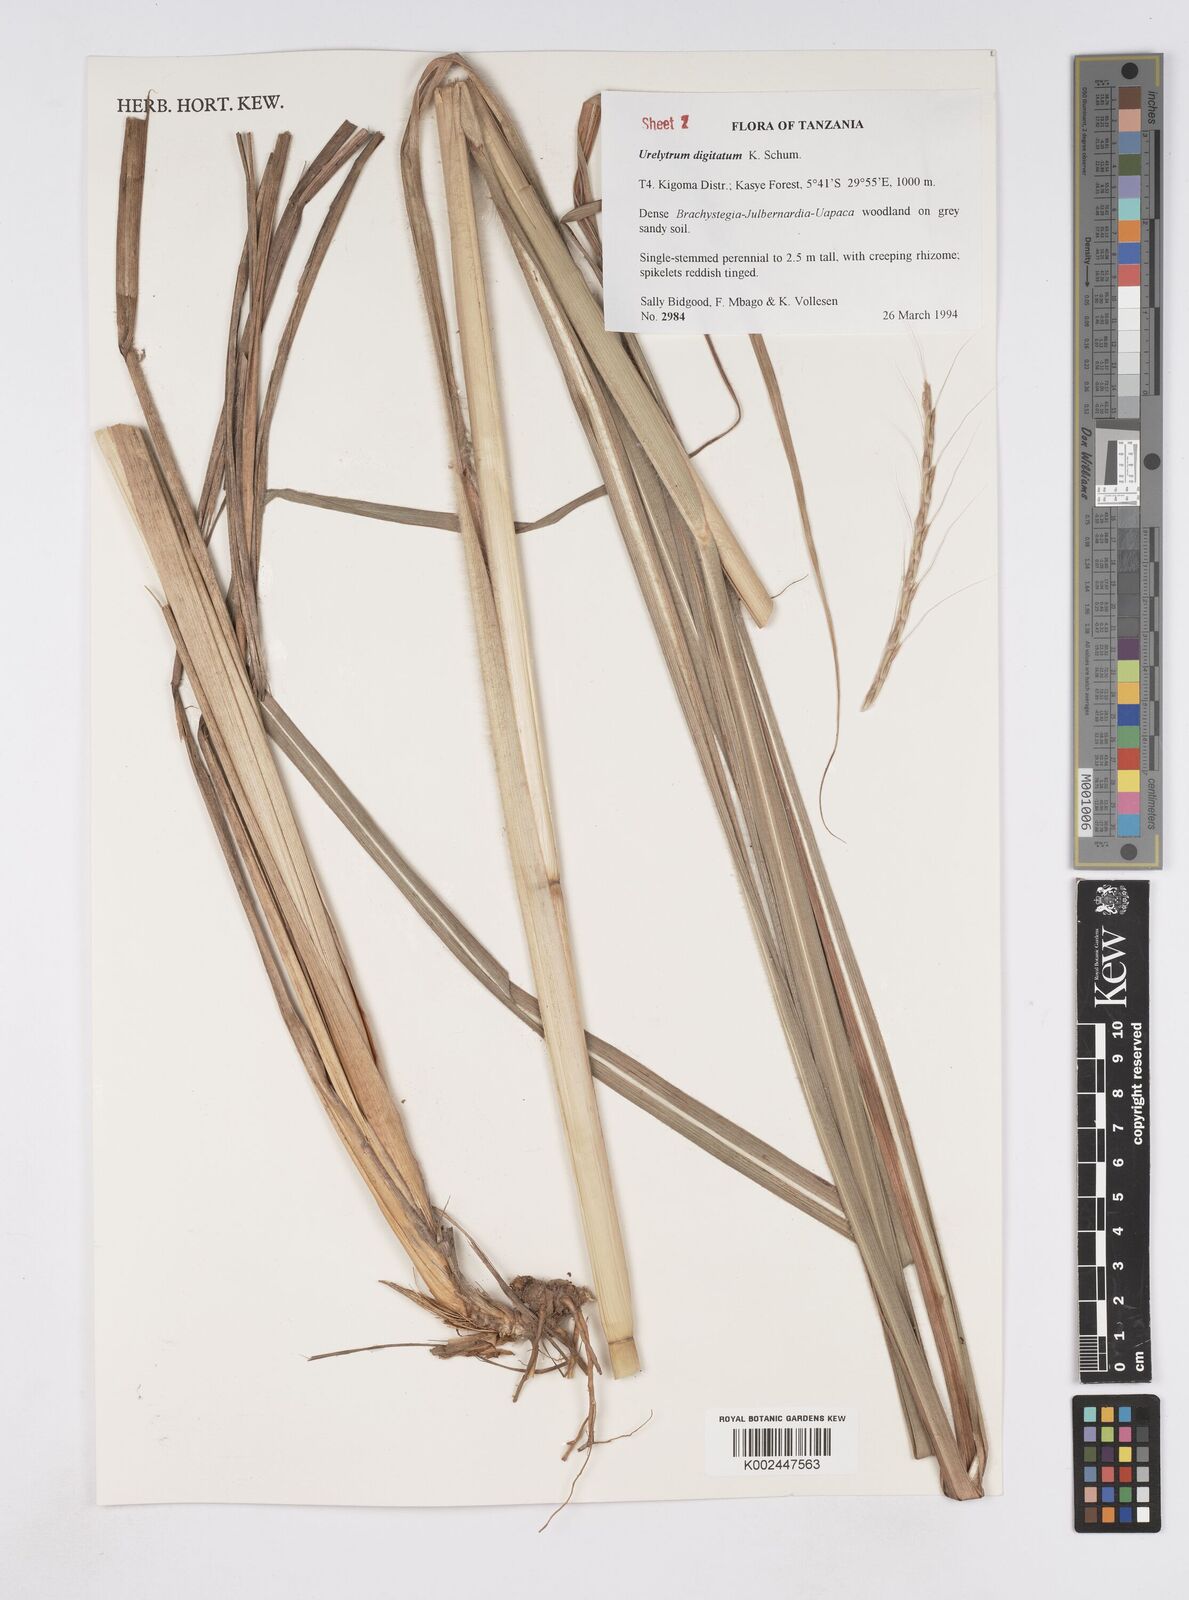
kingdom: Plantae
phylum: Tracheophyta
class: Liliopsida
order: Poales
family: Poaceae
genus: Urelytrum
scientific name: Urelytrum digitatum
